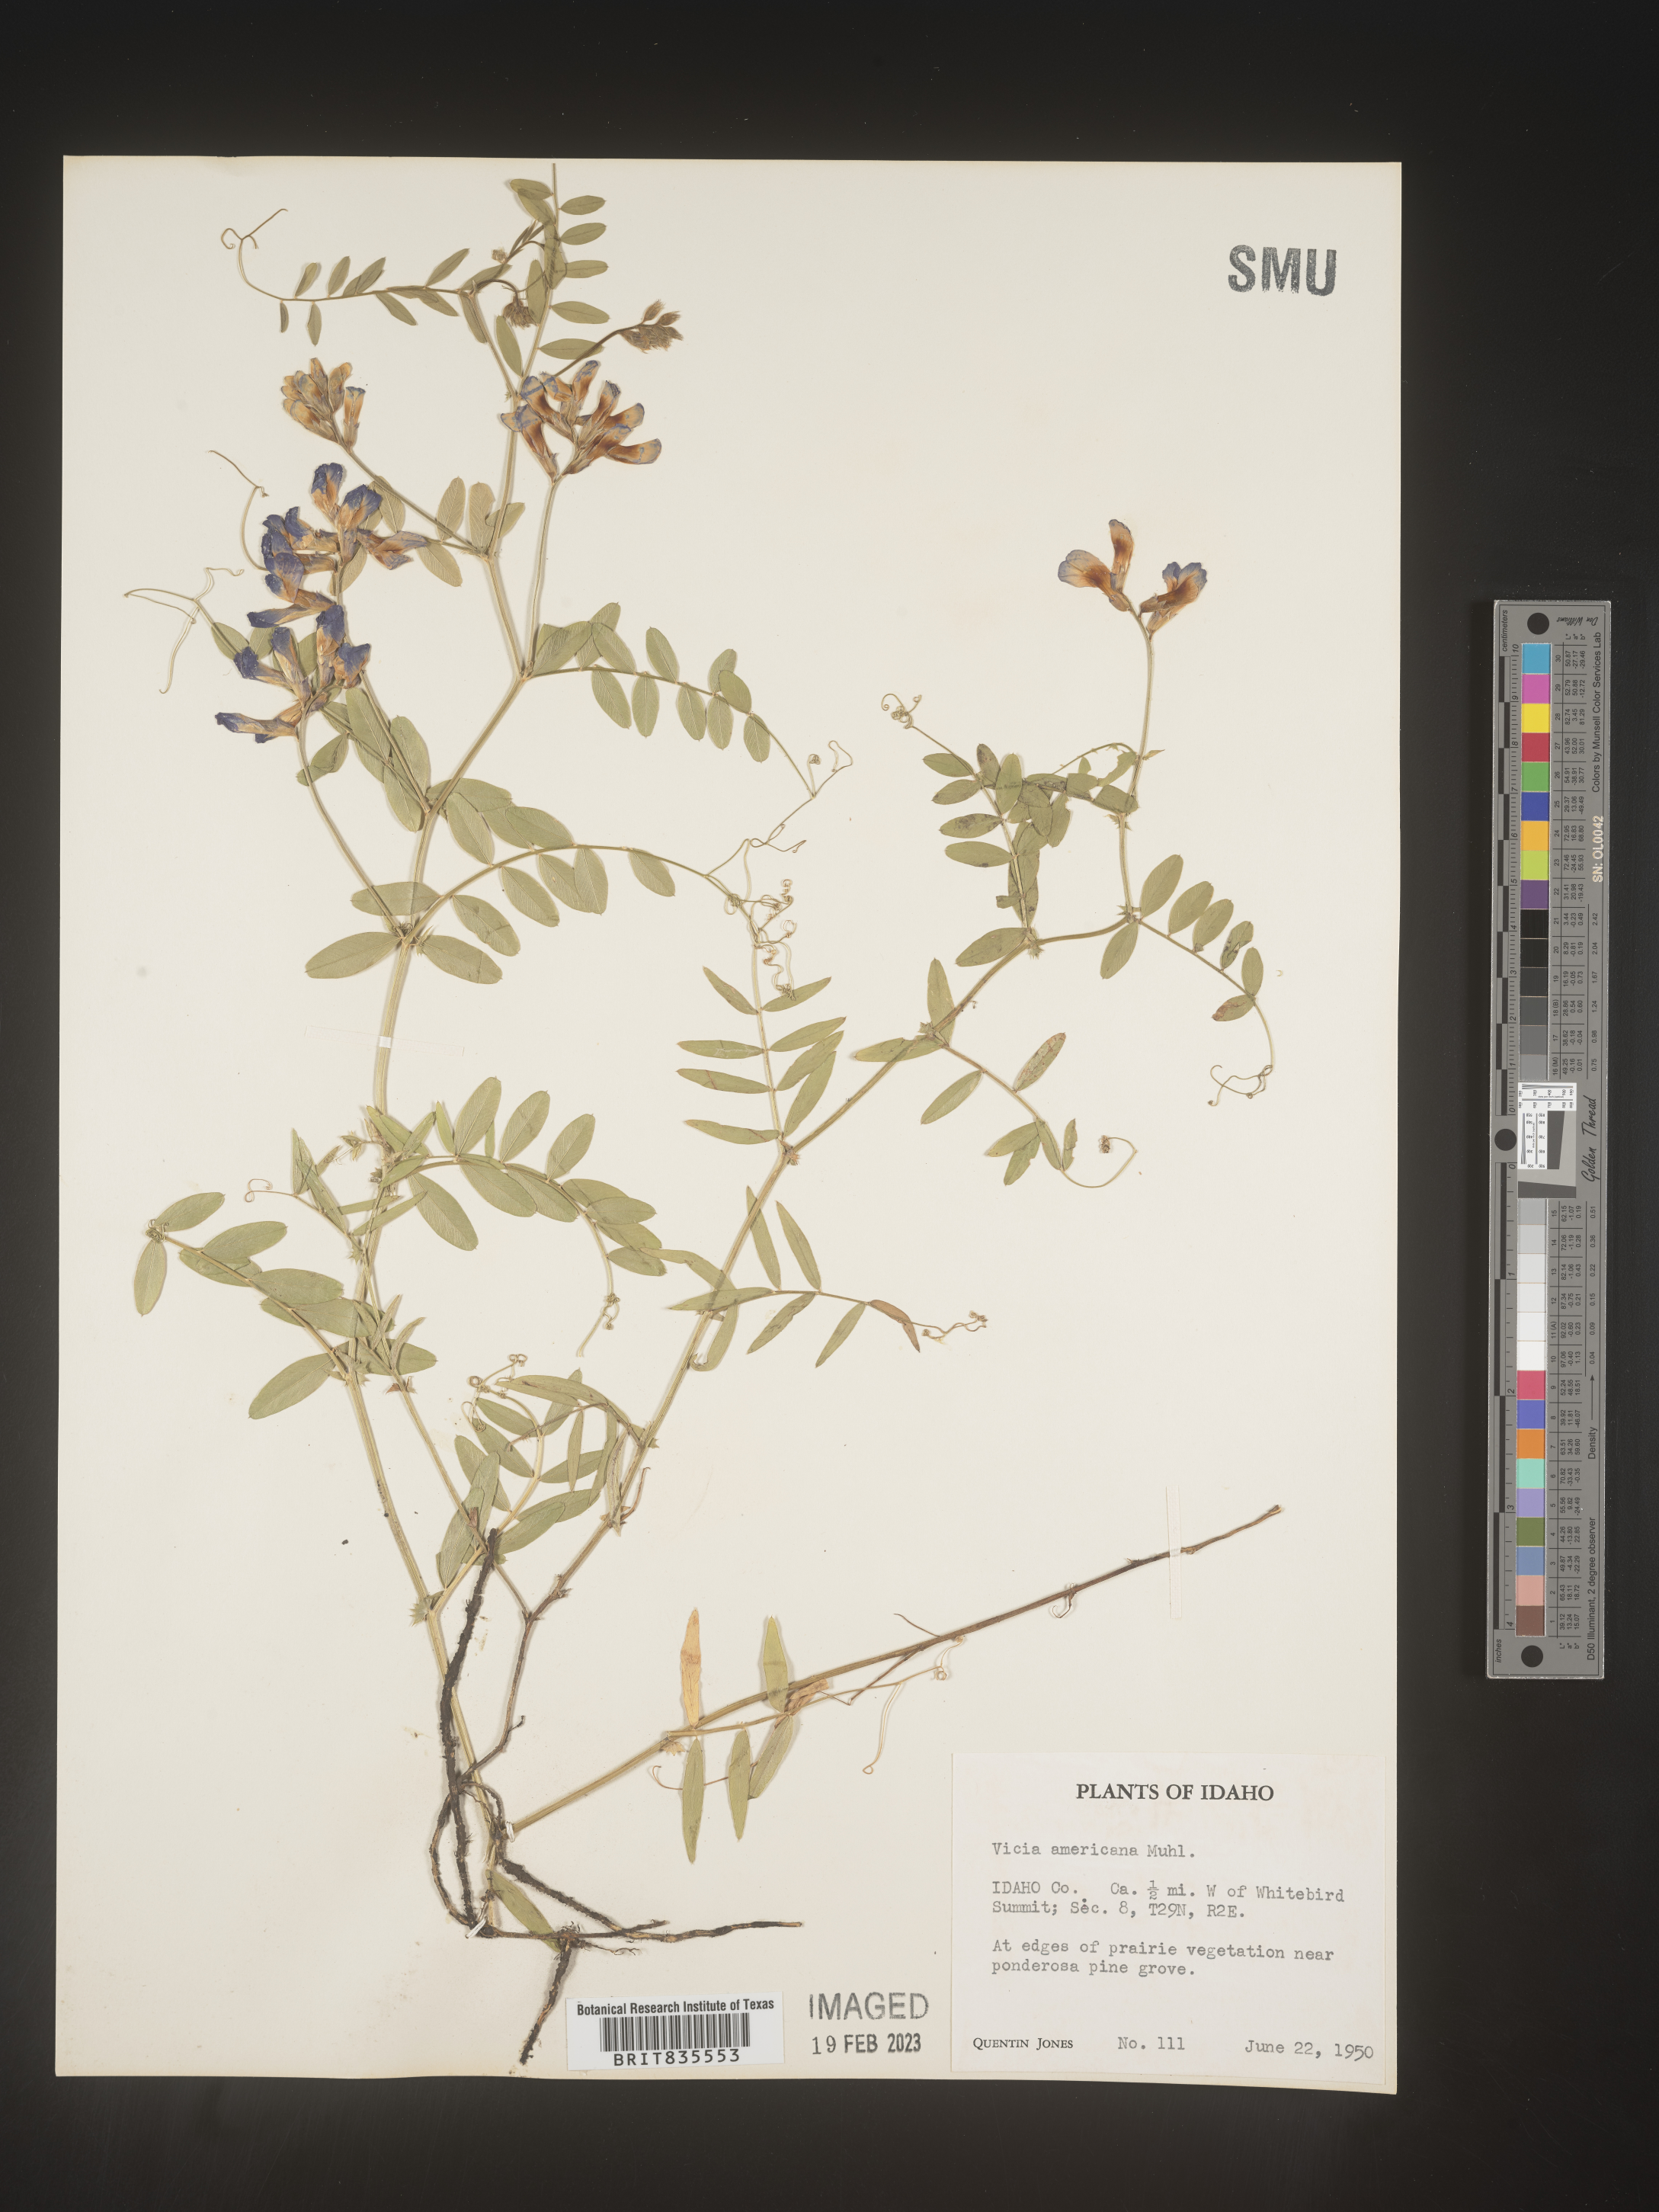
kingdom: Plantae
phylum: Tracheophyta
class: Magnoliopsida
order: Fabales
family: Fabaceae
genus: Vicia
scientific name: Vicia americana
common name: American vetch
